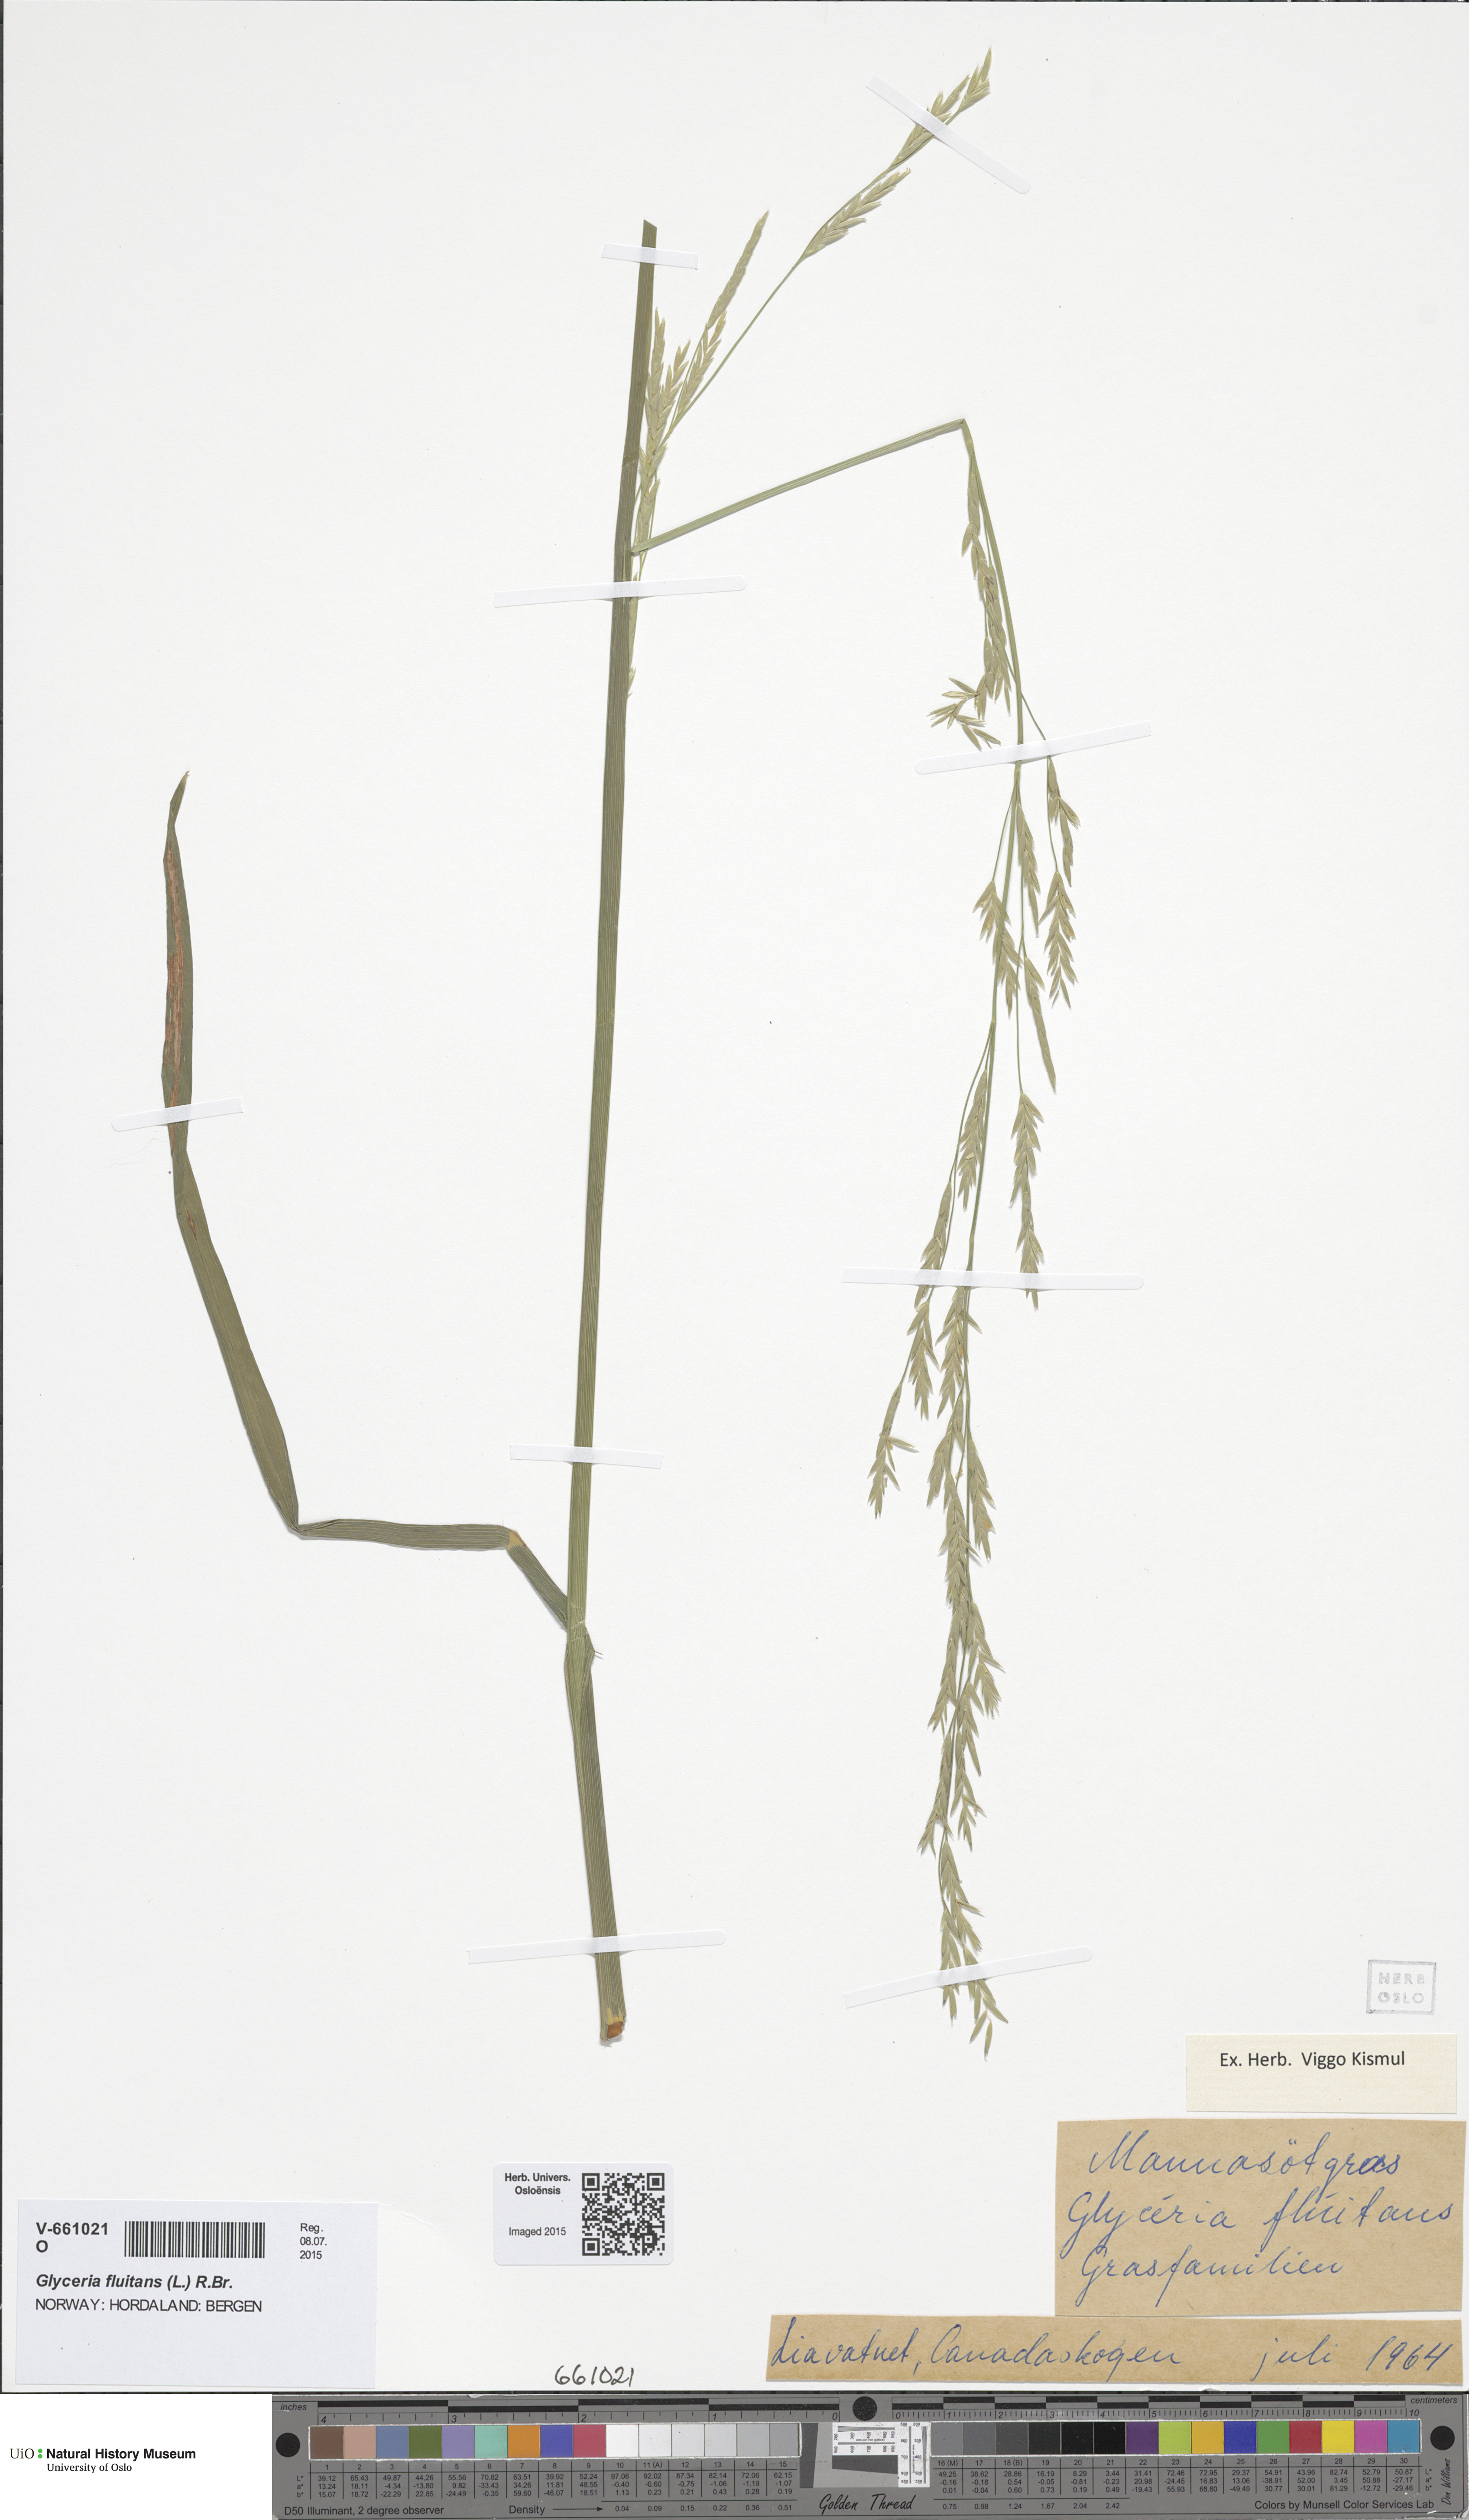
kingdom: Plantae
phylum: Tracheophyta
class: Liliopsida
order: Poales
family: Poaceae
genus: Glyceria
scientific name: Glyceria fluitans
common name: Floating sweet-grass
